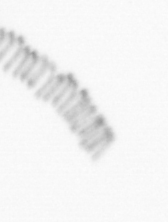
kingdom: Chromista
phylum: Ochrophyta
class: Bacillariophyceae
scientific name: Bacillariophyceae
